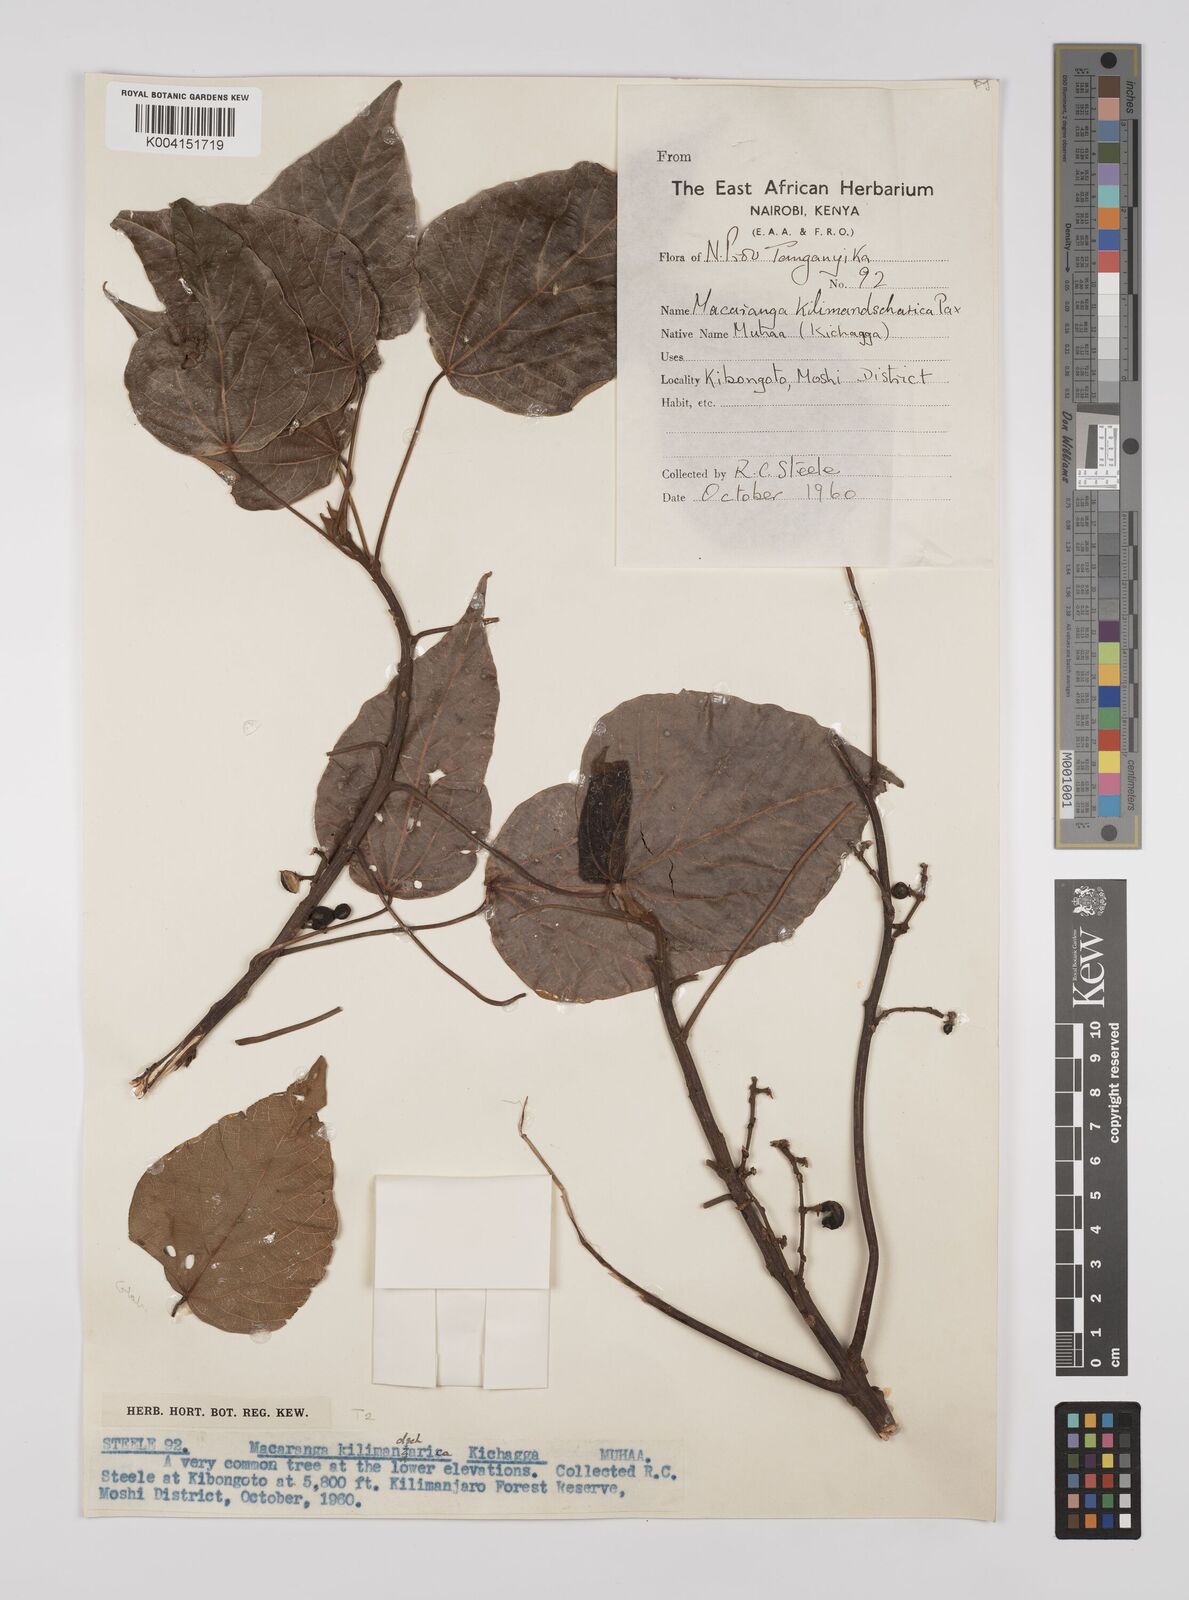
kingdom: Plantae
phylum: Tracheophyta
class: Magnoliopsida
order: Malpighiales
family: Euphorbiaceae
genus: Macaranga
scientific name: Macaranga kilimandscharica
